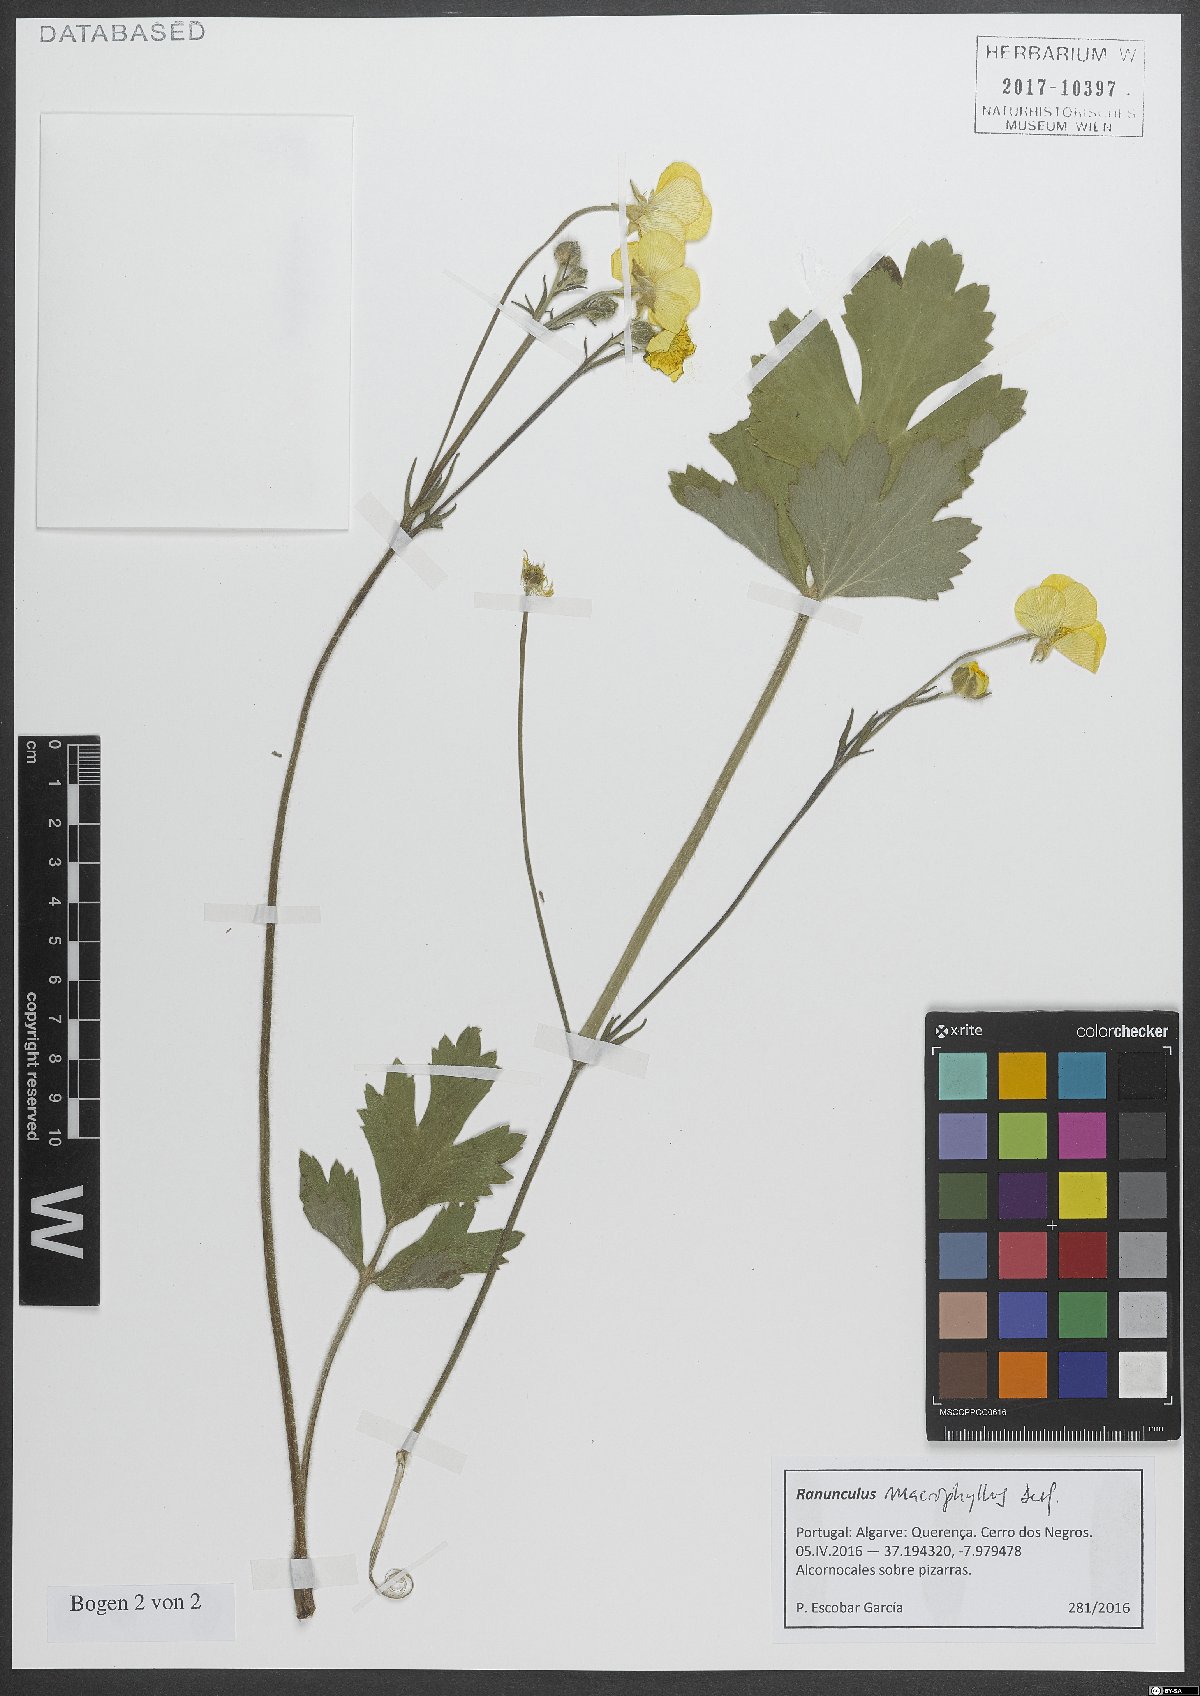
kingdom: Plantae
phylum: Tracheophyta
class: Magnoliopsida
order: Ranunculales
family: Ranunculaceae
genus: Ranunculus
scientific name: Ranunculus acris
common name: Meadow buttercup
